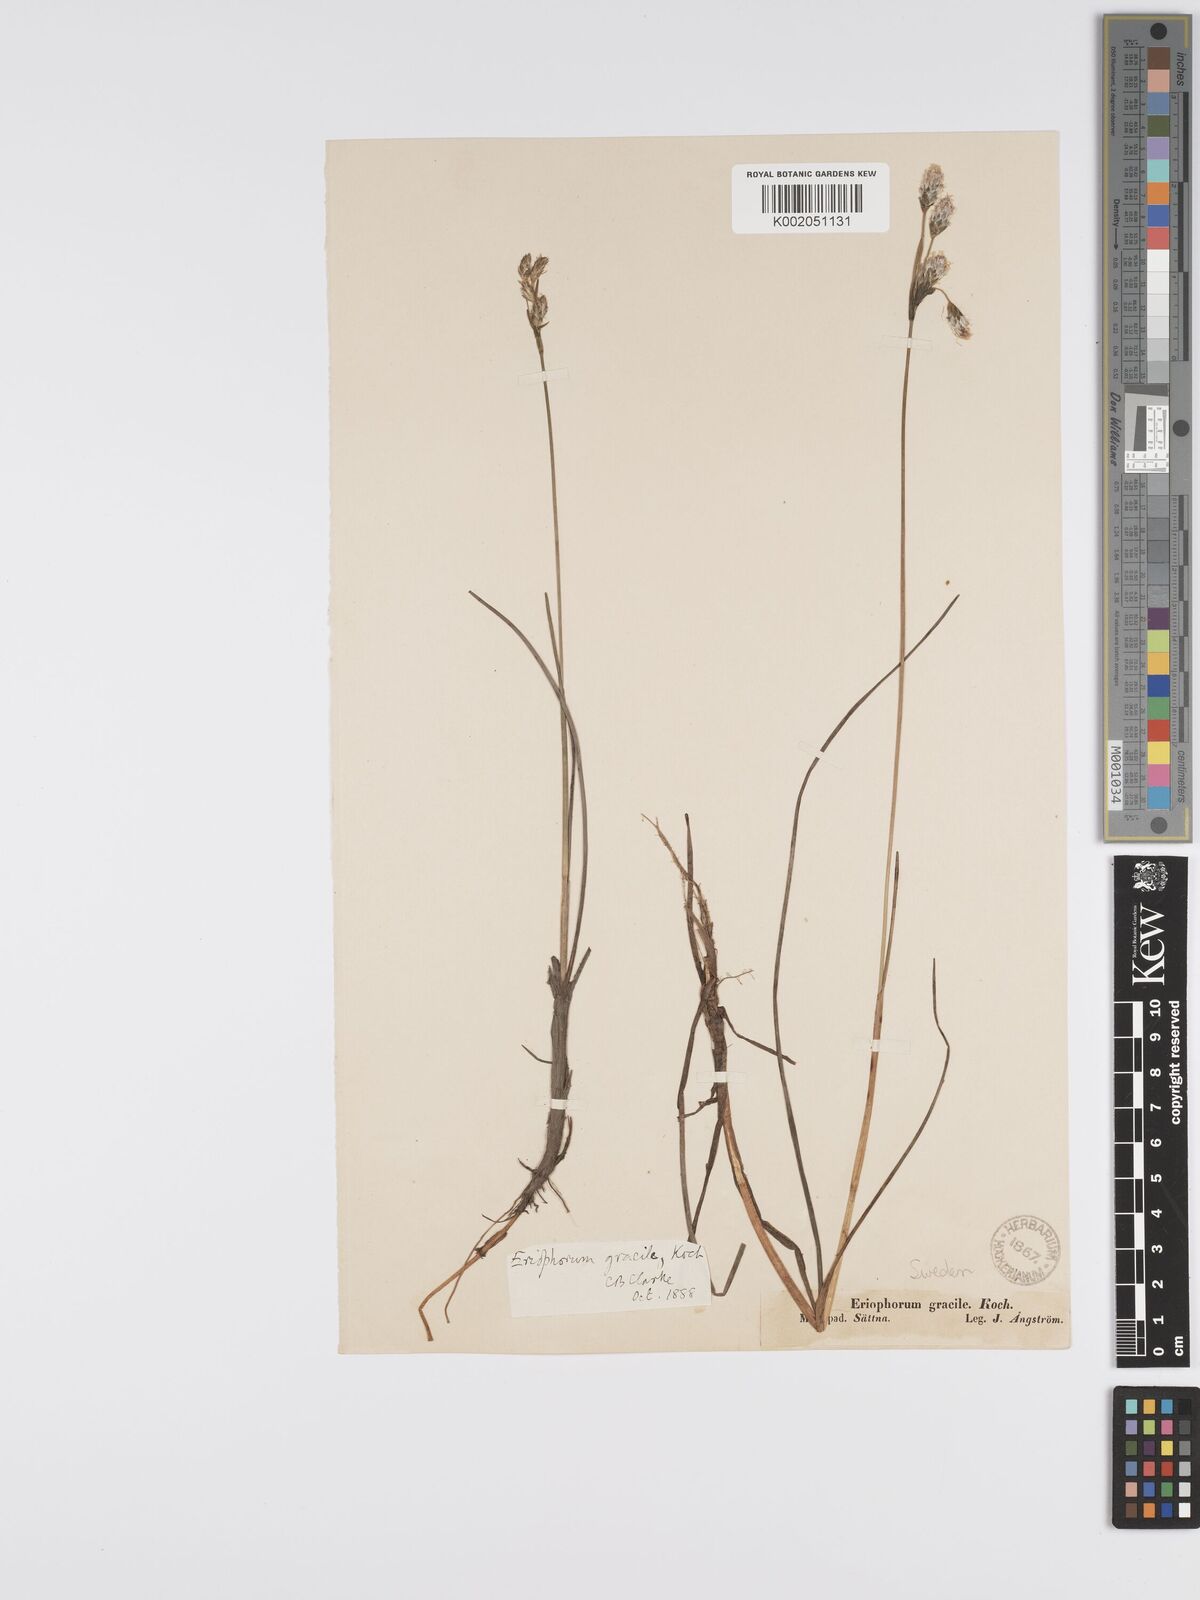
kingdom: Plantae
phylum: Tracheophyta
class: Liliopsida
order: Poales
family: Cyperaceae
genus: Eriophorum
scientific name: Eriophorum gracile
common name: Slender cottongrass
